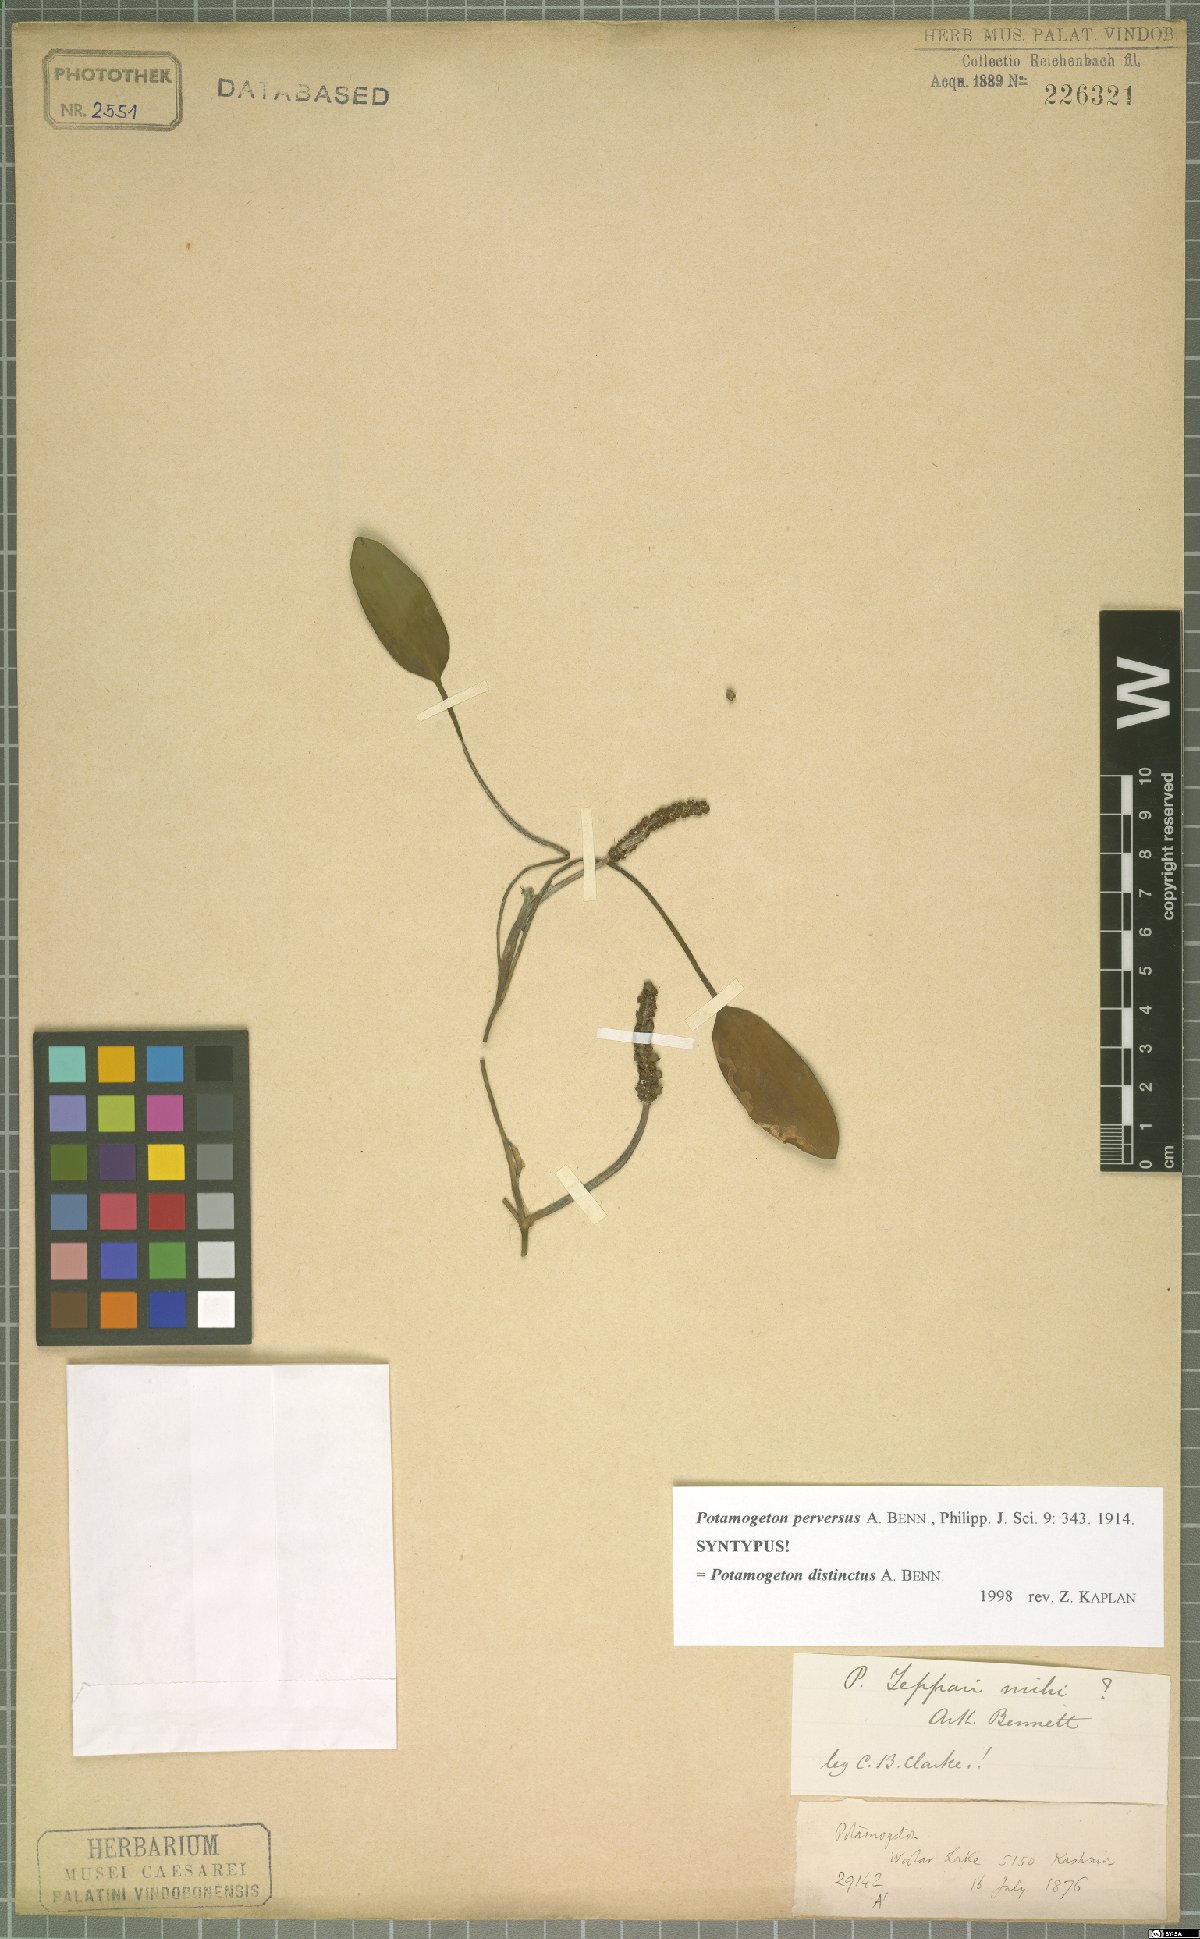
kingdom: Plantae
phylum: Tracheophyta
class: Liliopsida
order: Alismatales
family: Potamogetonaceae
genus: Potamogeton
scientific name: Potamogeton distinctus
